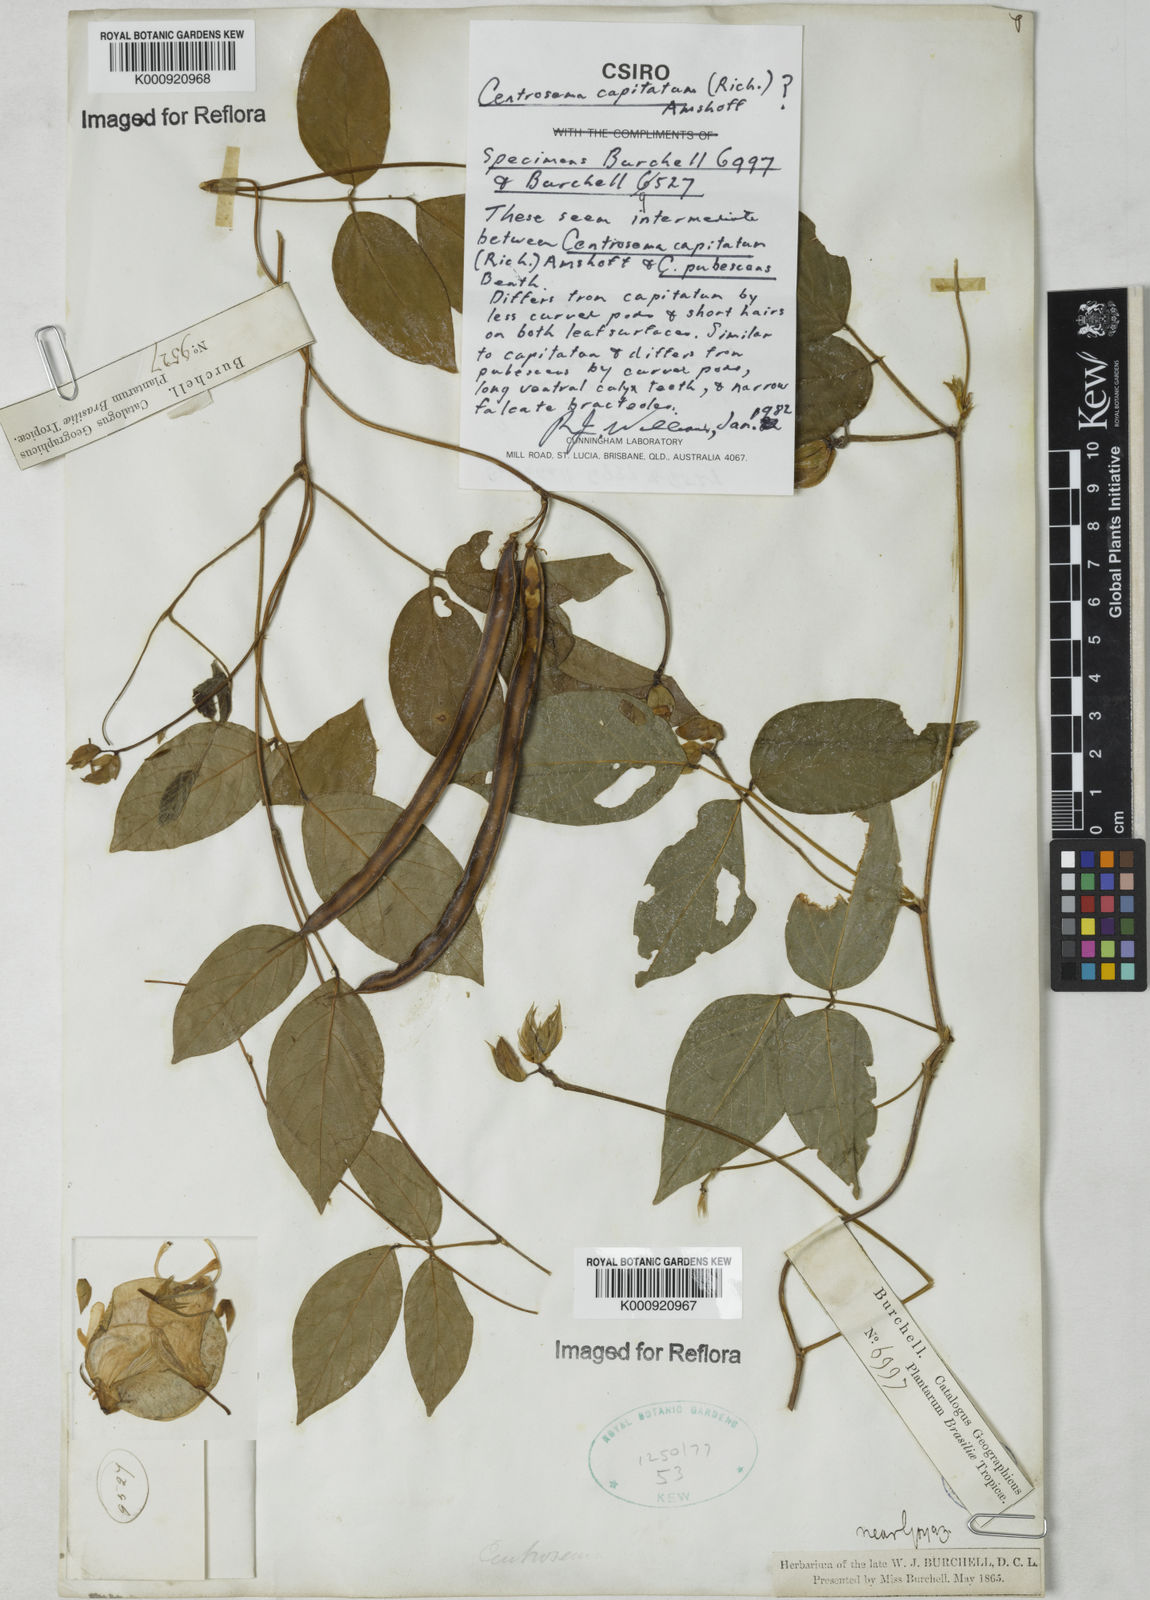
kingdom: Plantae
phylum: Tracheophyta
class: Magnoliopsida
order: Fabales
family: Fabaceae
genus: Centrosema
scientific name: Centrosema
